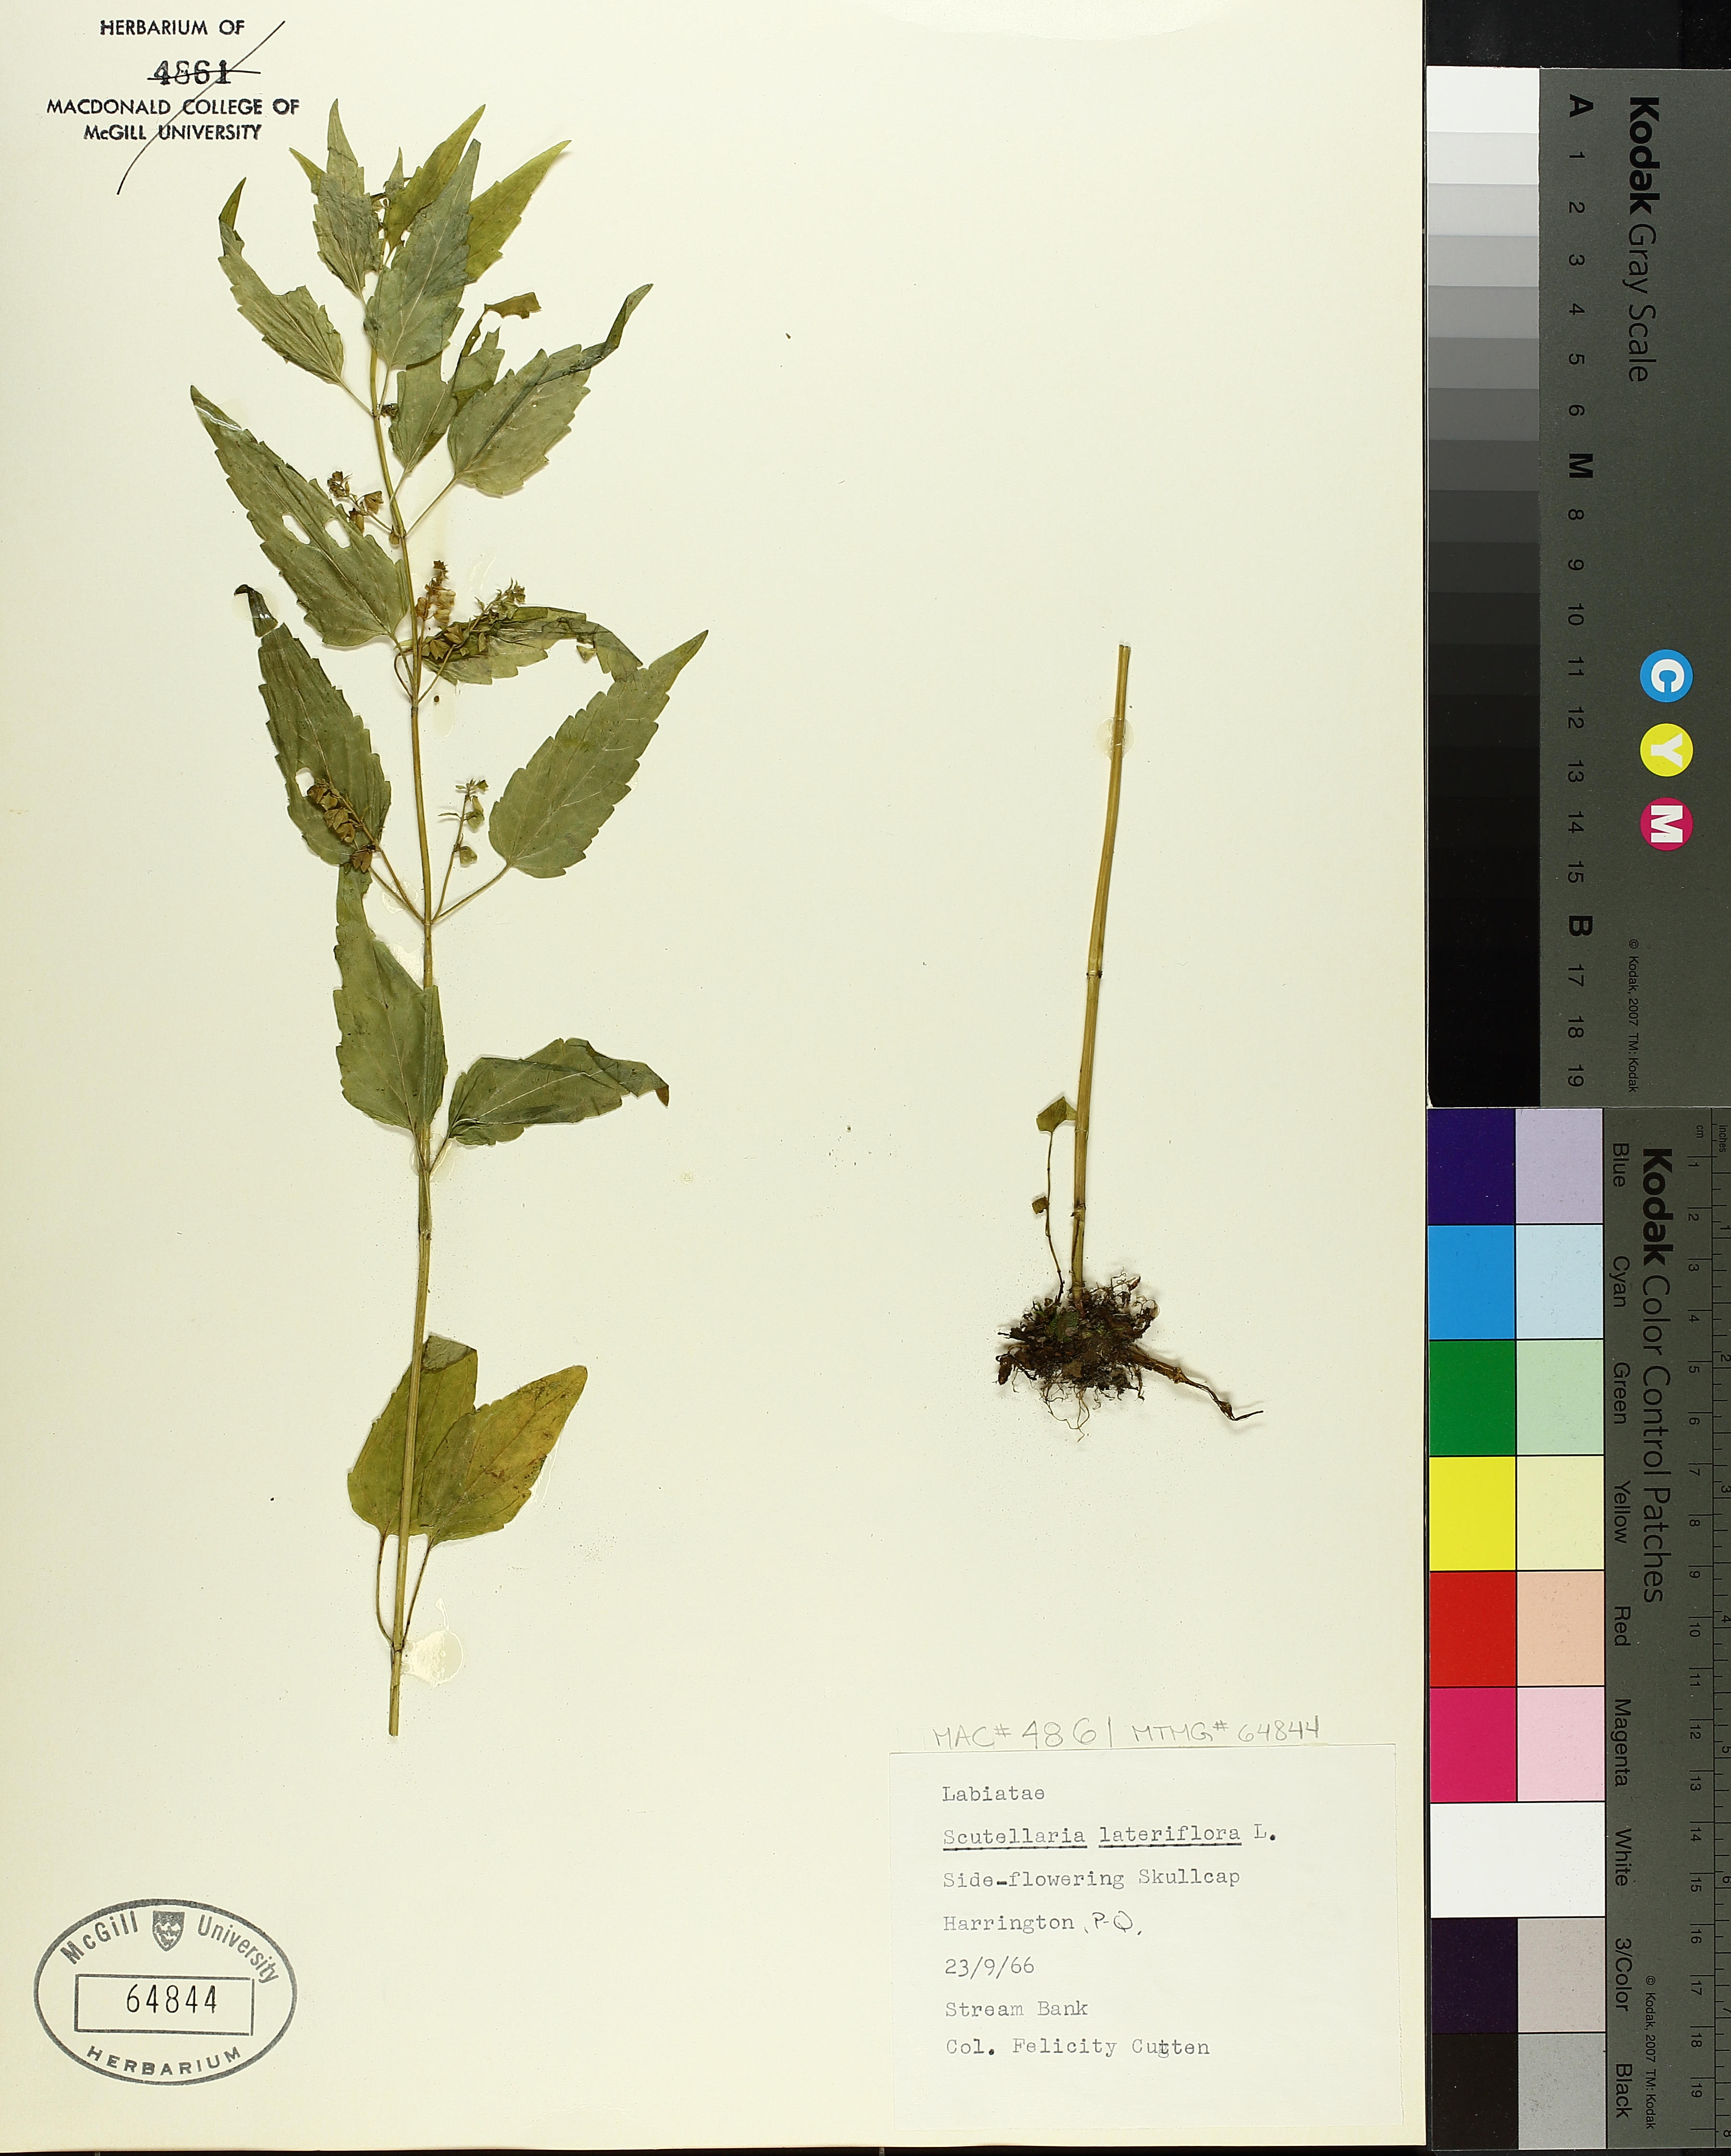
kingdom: Plantae
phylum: Tracheophyta
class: Magnoliopsida
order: Lamiales
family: Lamiaceae
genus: Scutellaria
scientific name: Scutellaria lateriflora
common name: Blue skullcap
